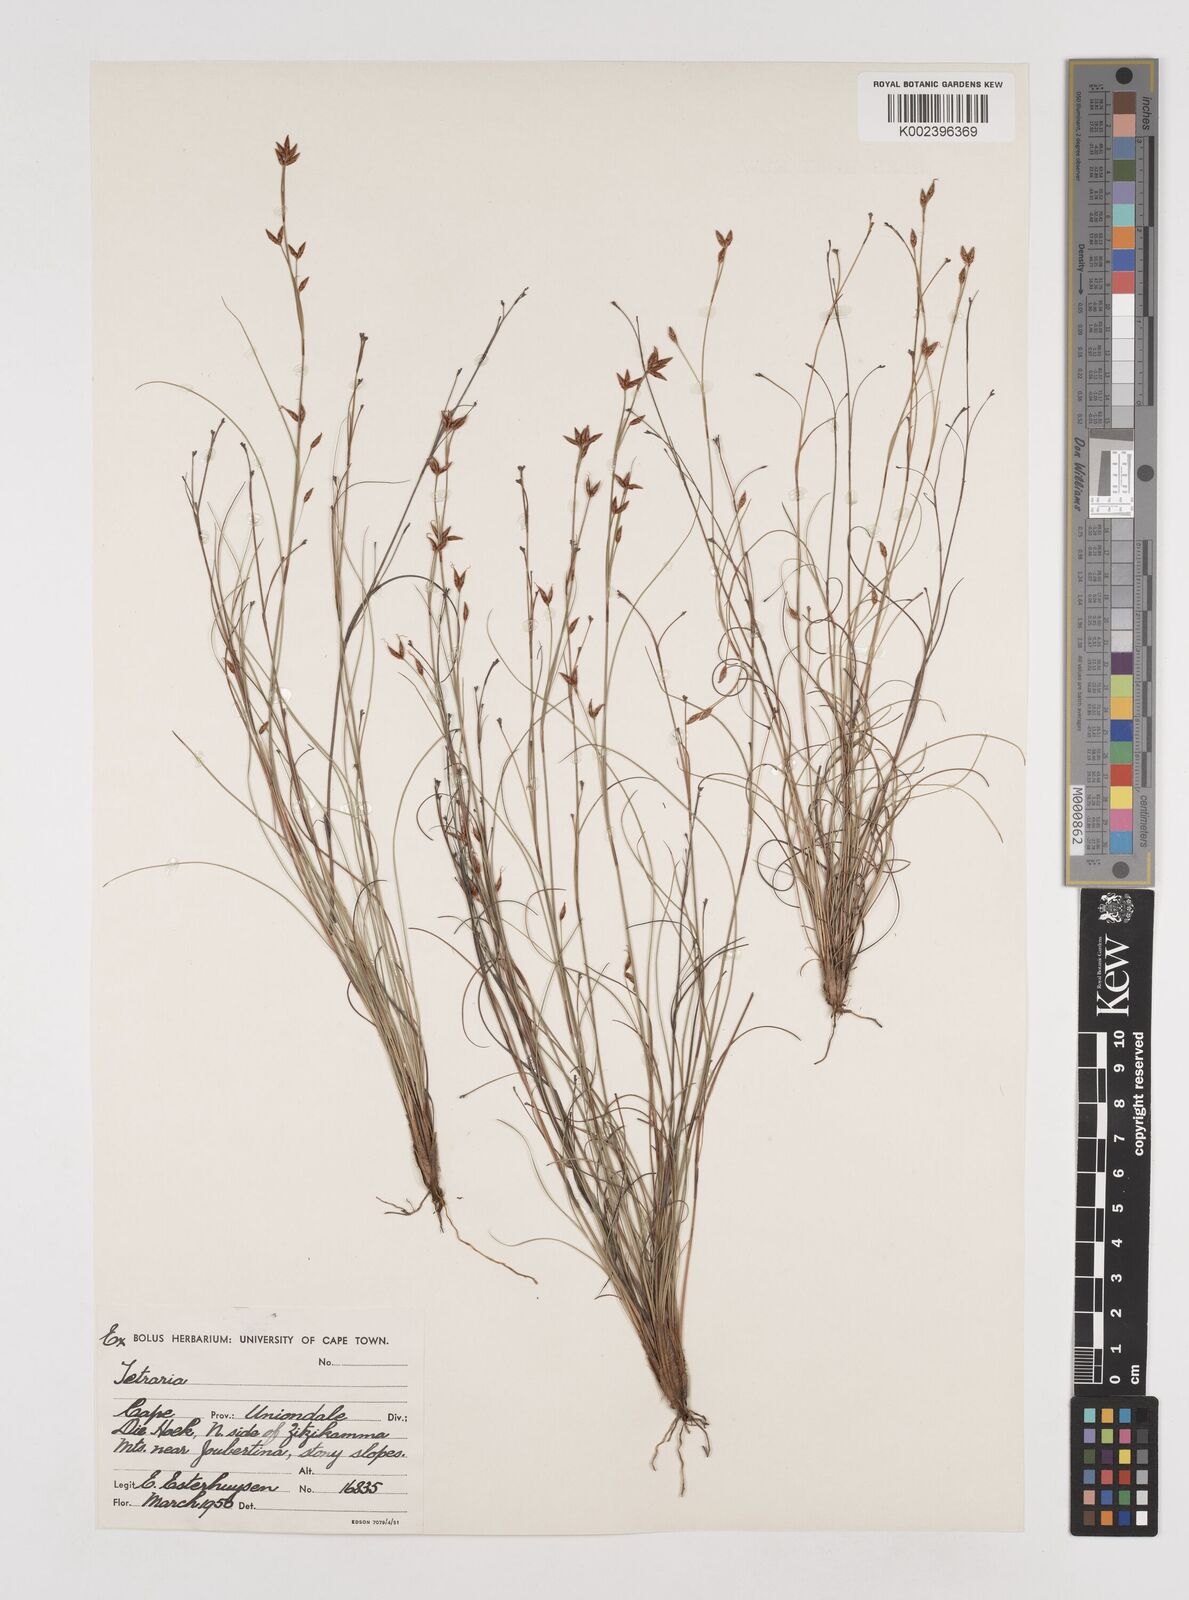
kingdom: Plantae
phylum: Tracheophyta
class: Liliopsida
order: Poales
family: Cyperaceae
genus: Tetraria
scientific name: Tetraria
